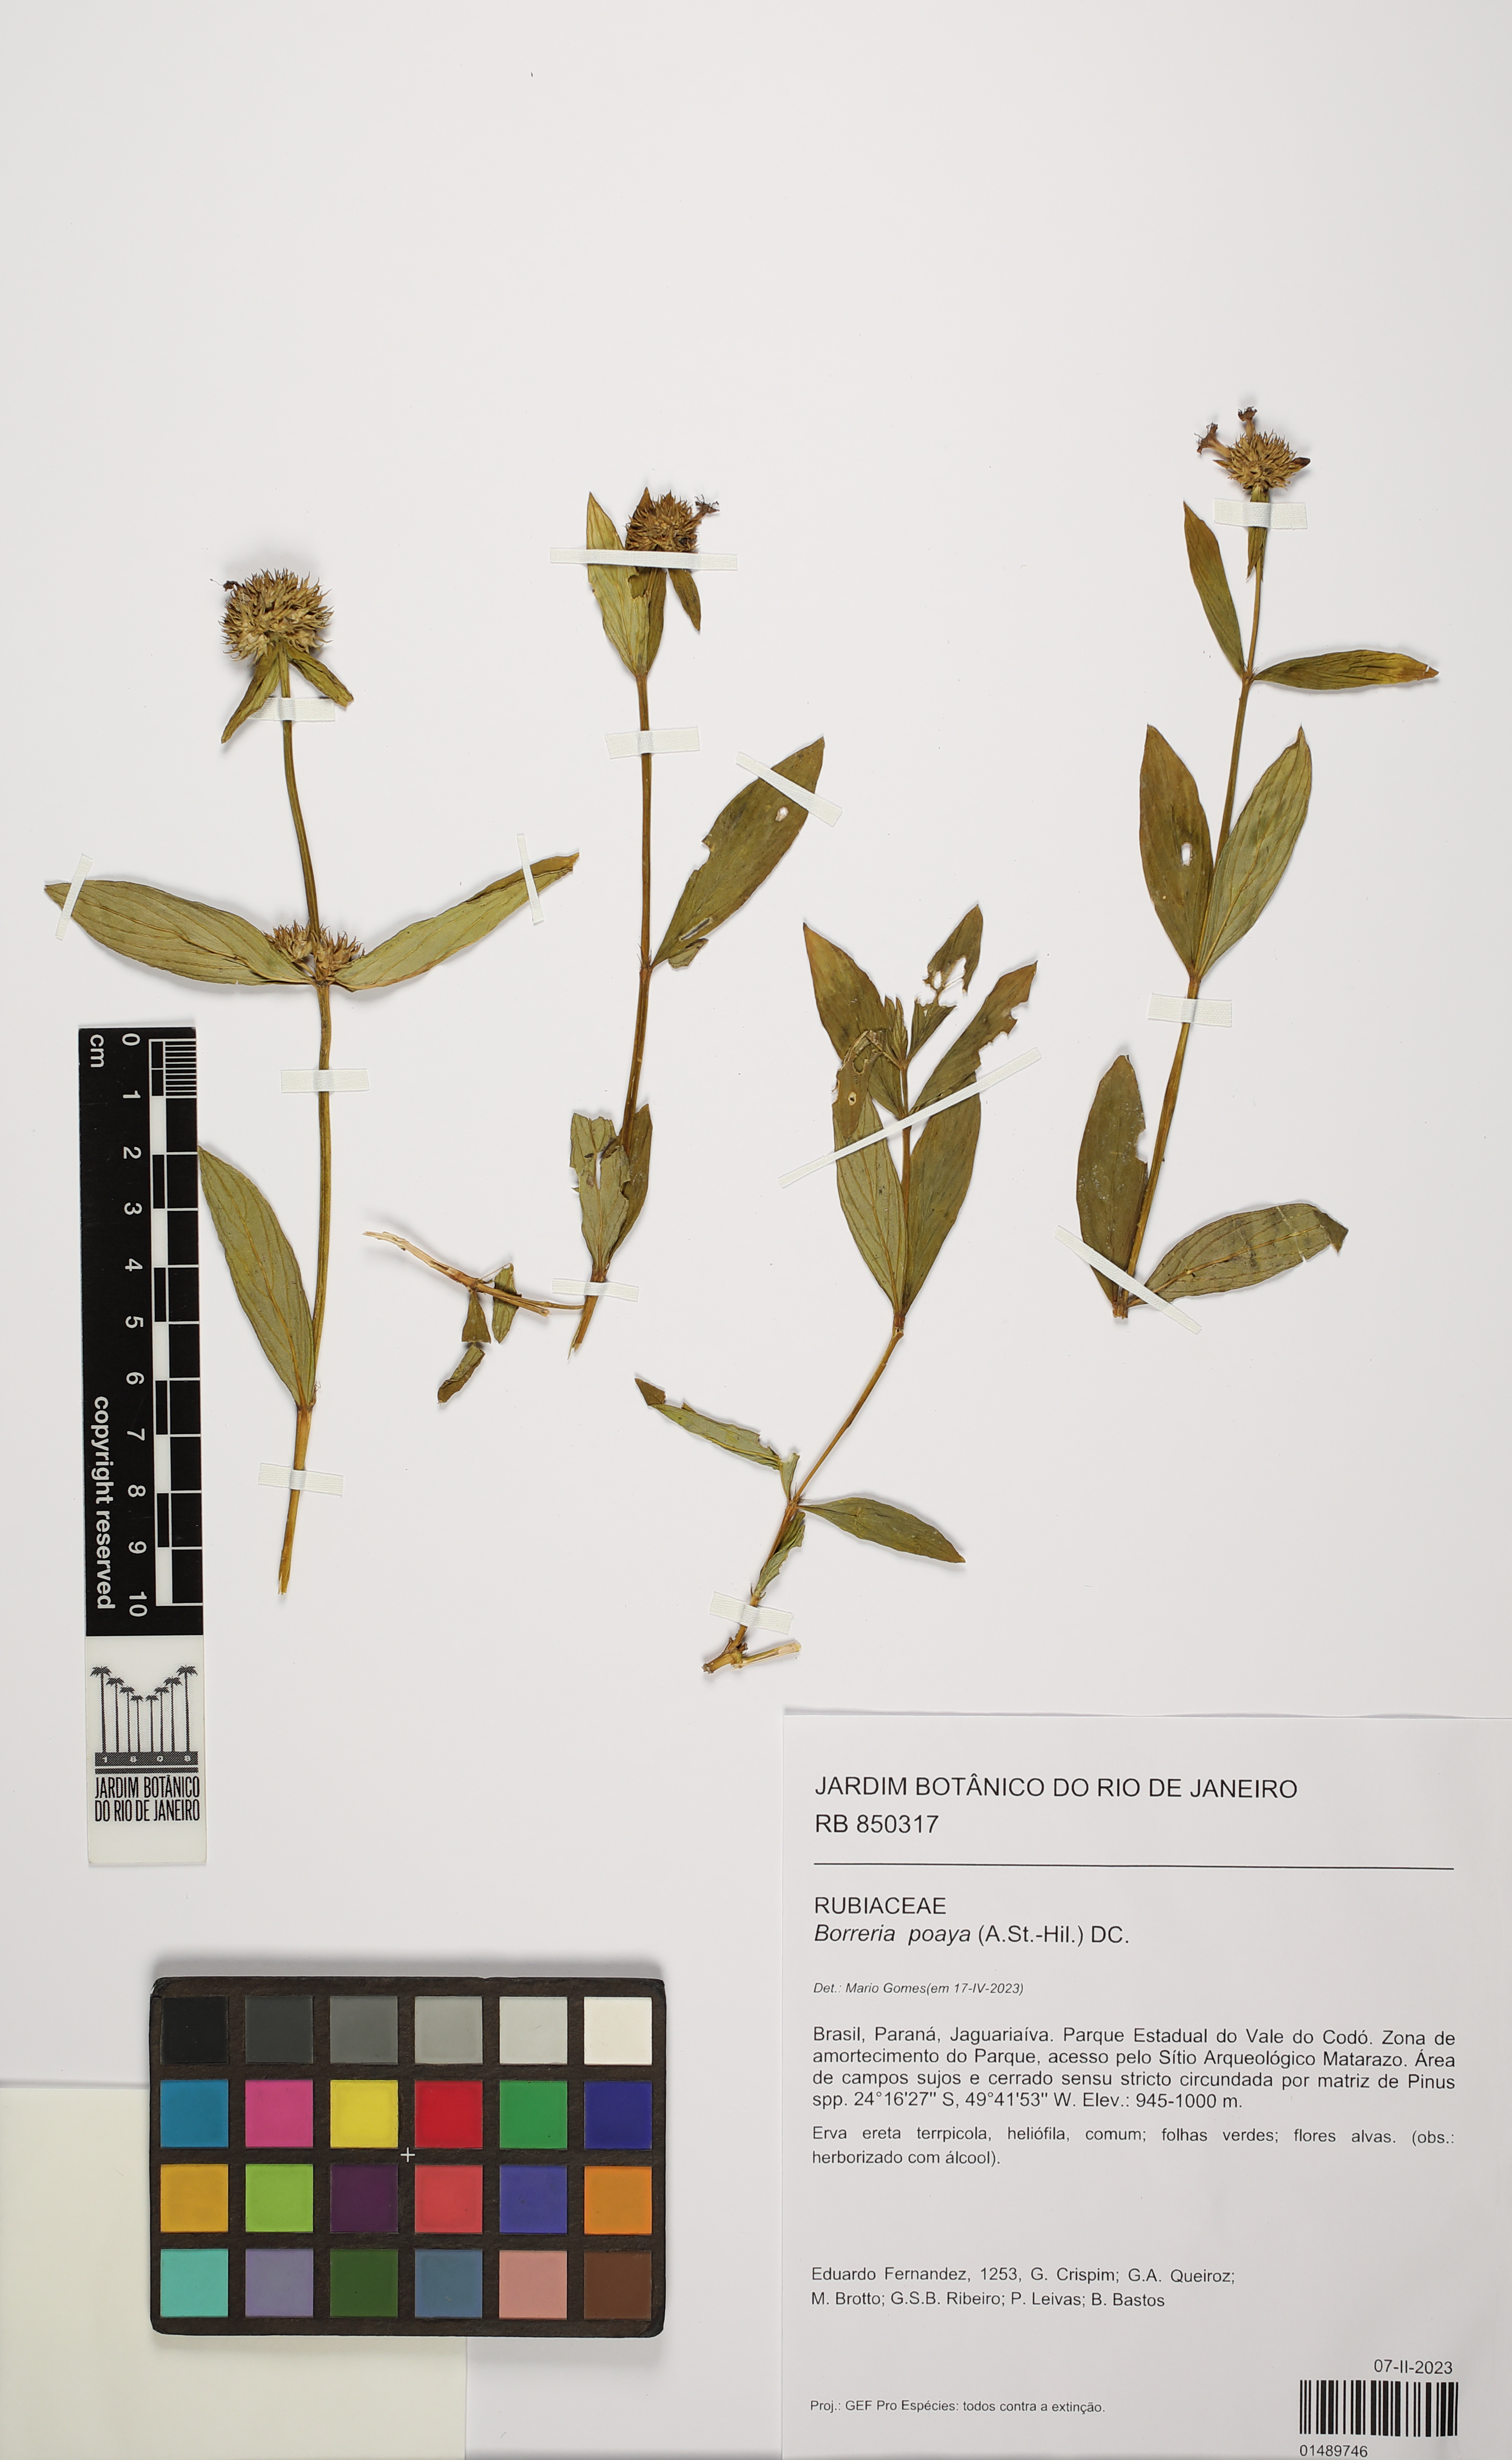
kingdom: Plantae
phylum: Tracheophyta
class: Magnoliopsida
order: Gentianales
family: Rubiaceae
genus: Spermacoce
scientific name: Spermacoce poaya
